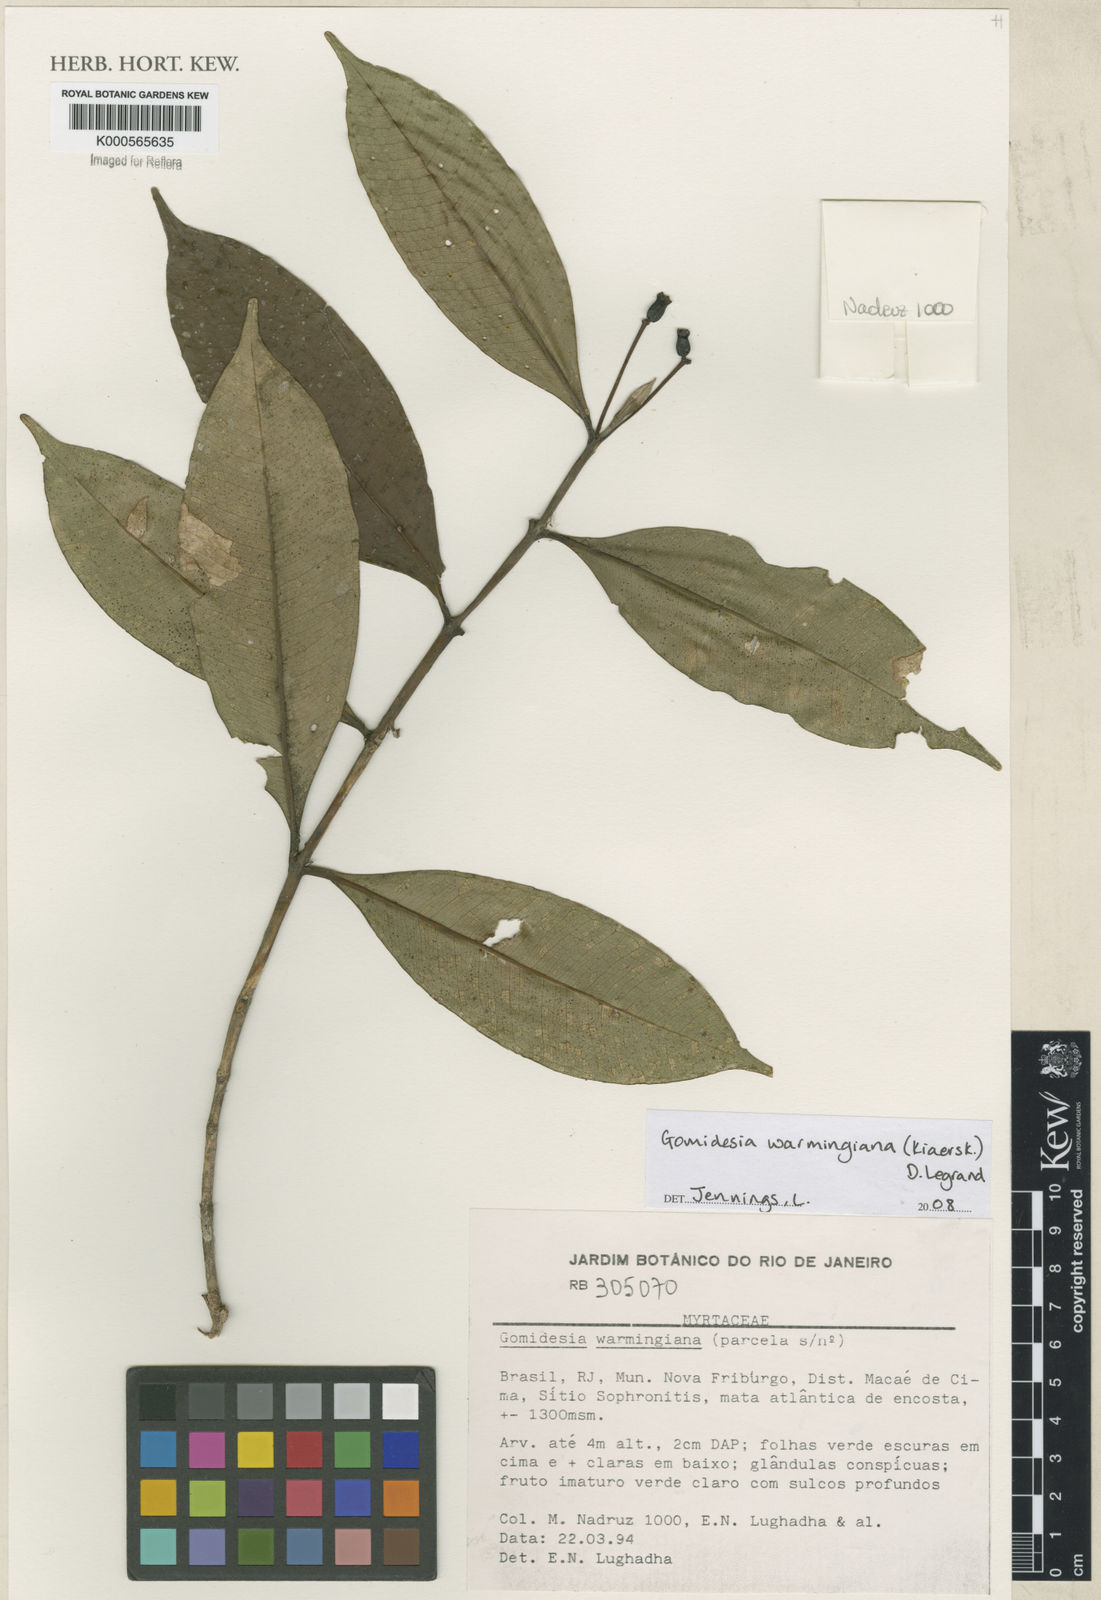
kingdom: Plantae
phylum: Tracheophyta
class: Magnoliopsida
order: Myrtales
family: Myrtaceae
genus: Myrcia
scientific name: Myrcia warmingiana
